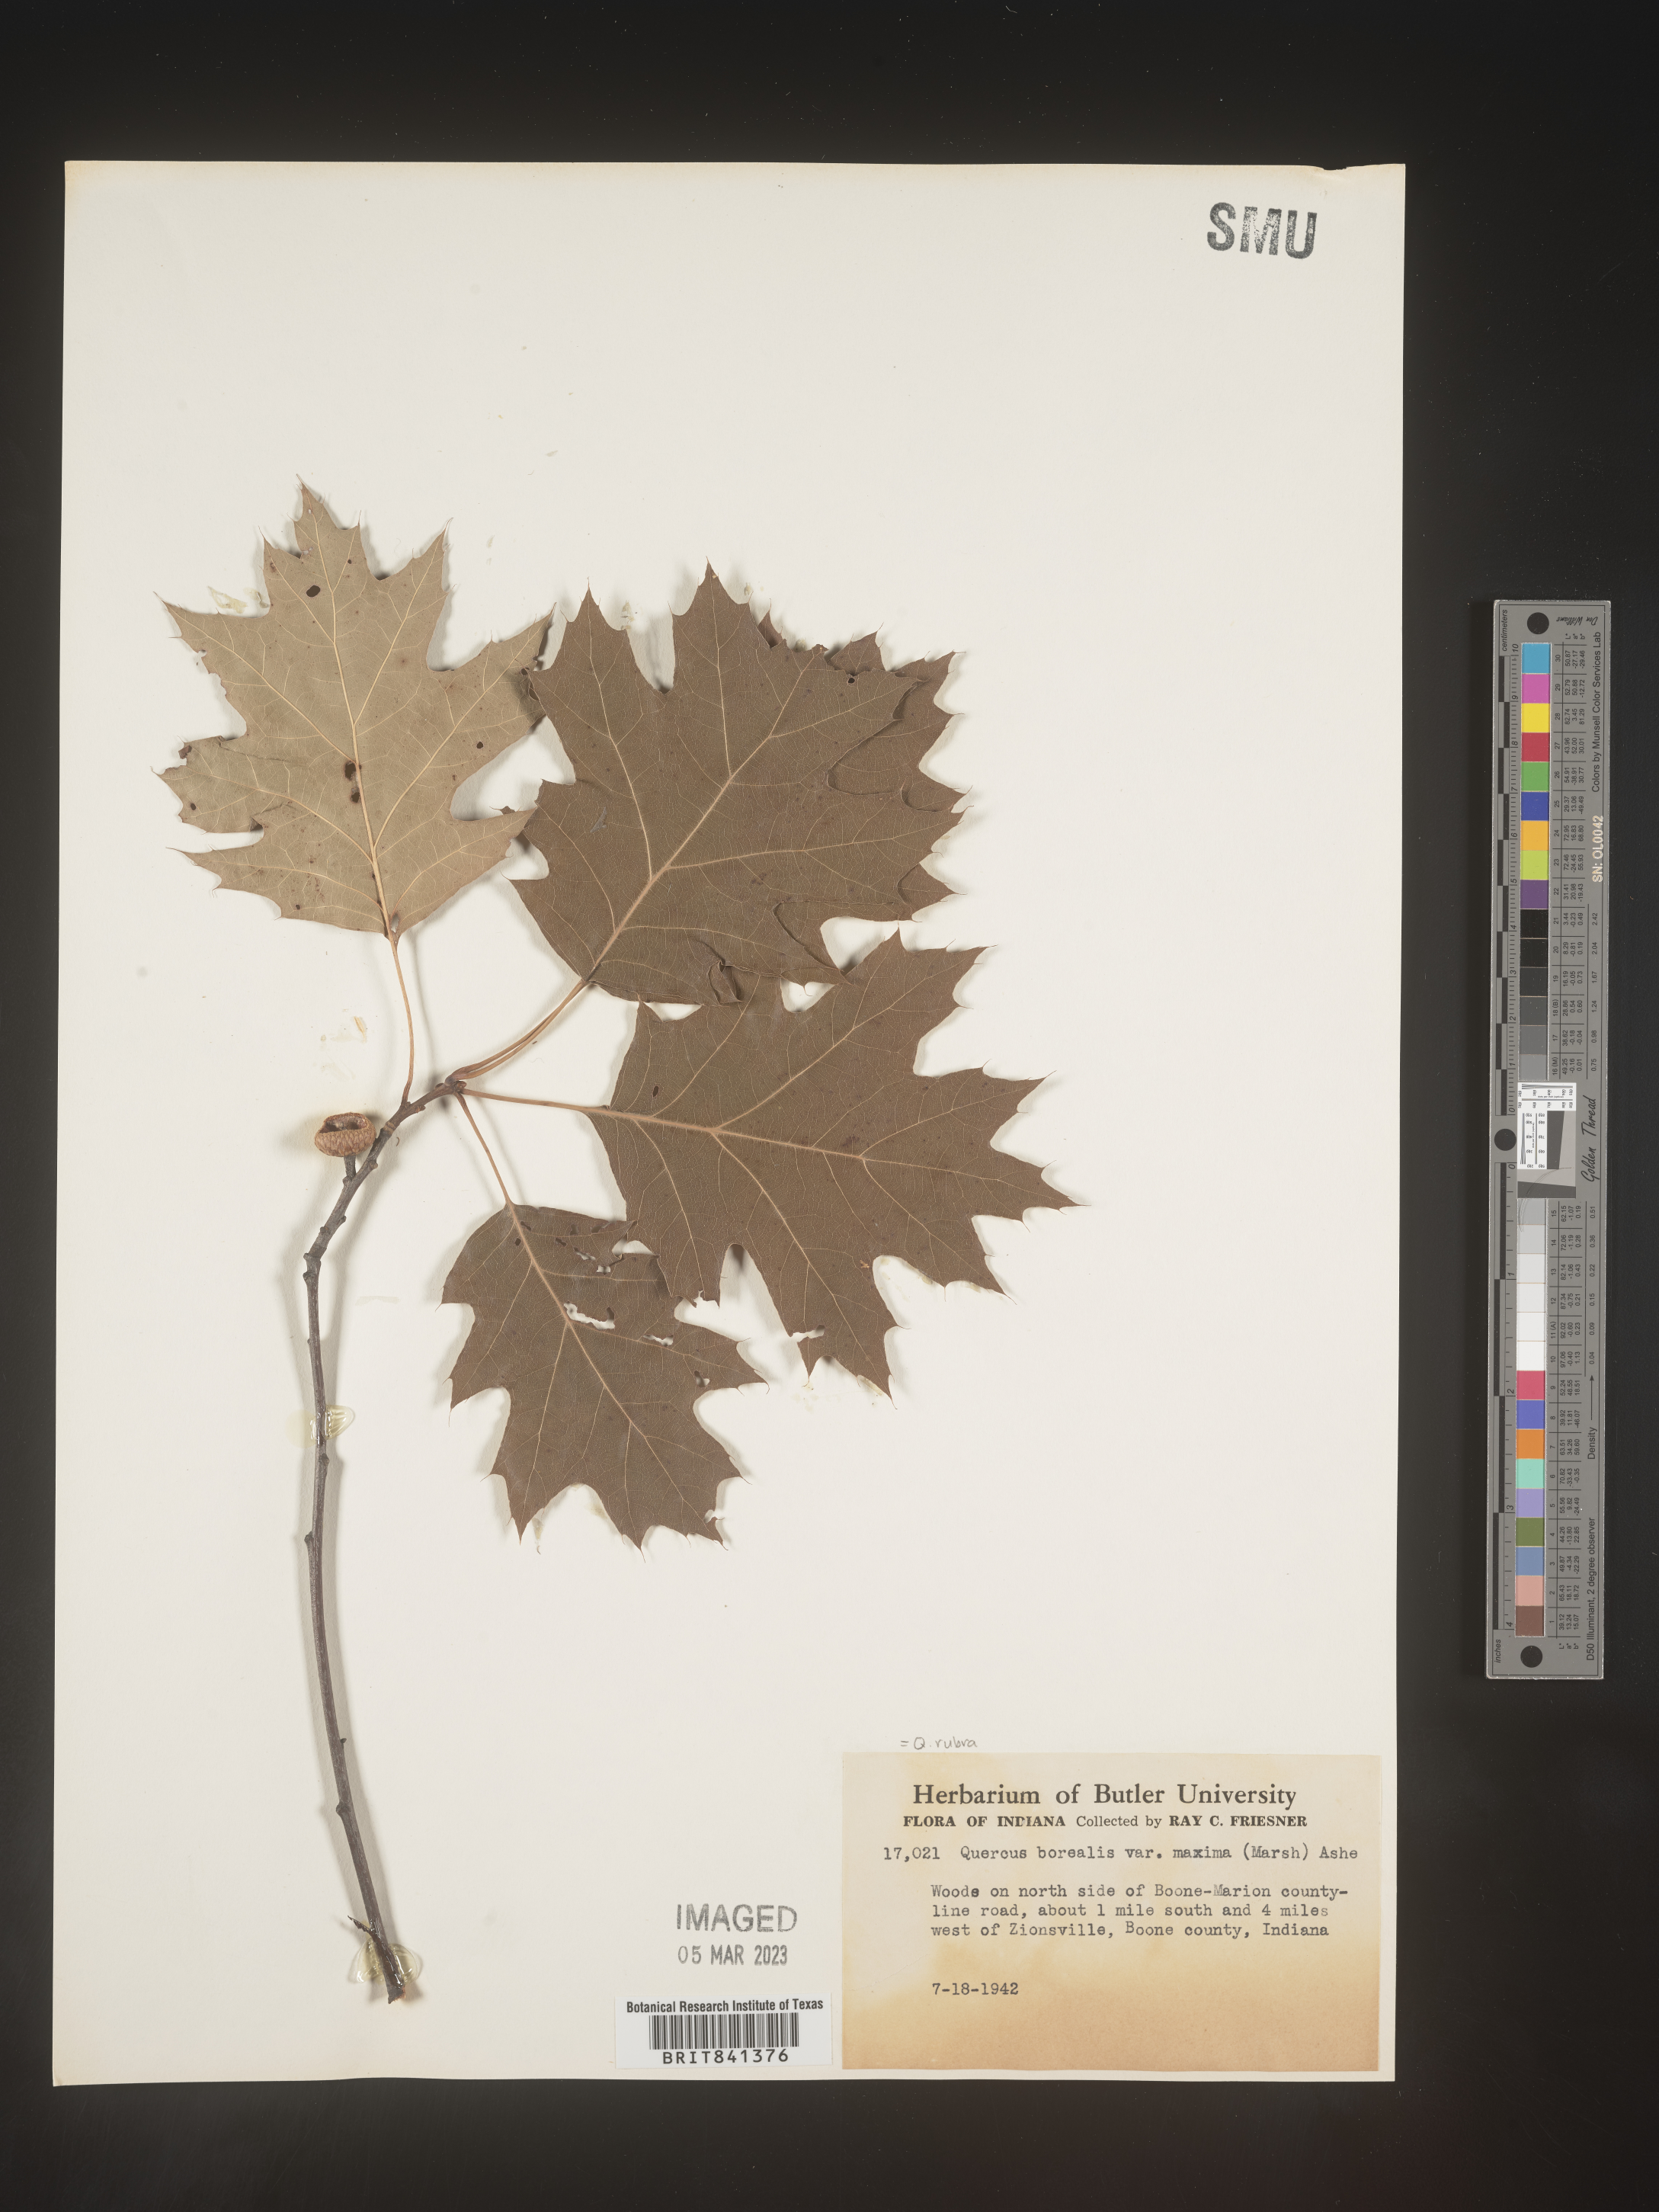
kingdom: Plantae
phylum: Tracheophyta
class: Magnoliopsida
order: Fagales
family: Fagaceae
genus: Quercus
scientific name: Quercus rubra
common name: Red oak
